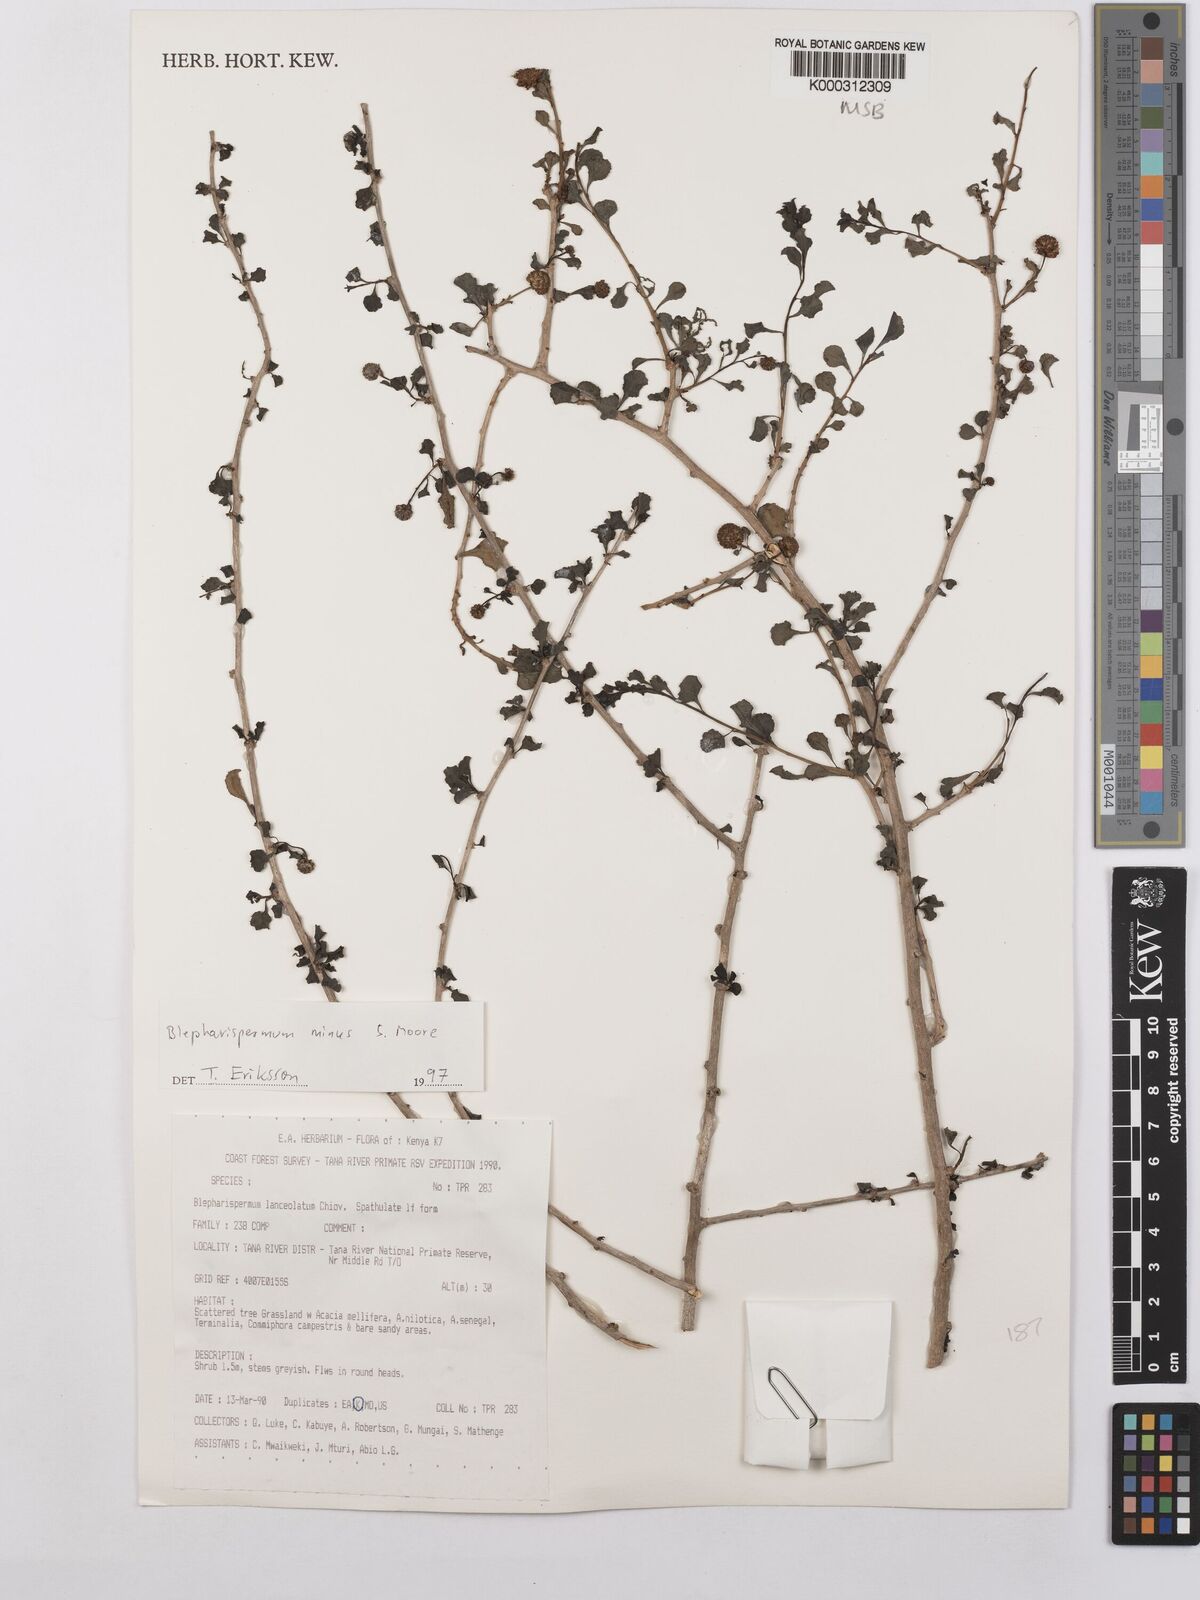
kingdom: Plantae
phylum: Tracheophyta
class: Magnoliopsida
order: Asterales
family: Asteraceae
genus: Blepharispermum
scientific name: Blepharispermum minus
